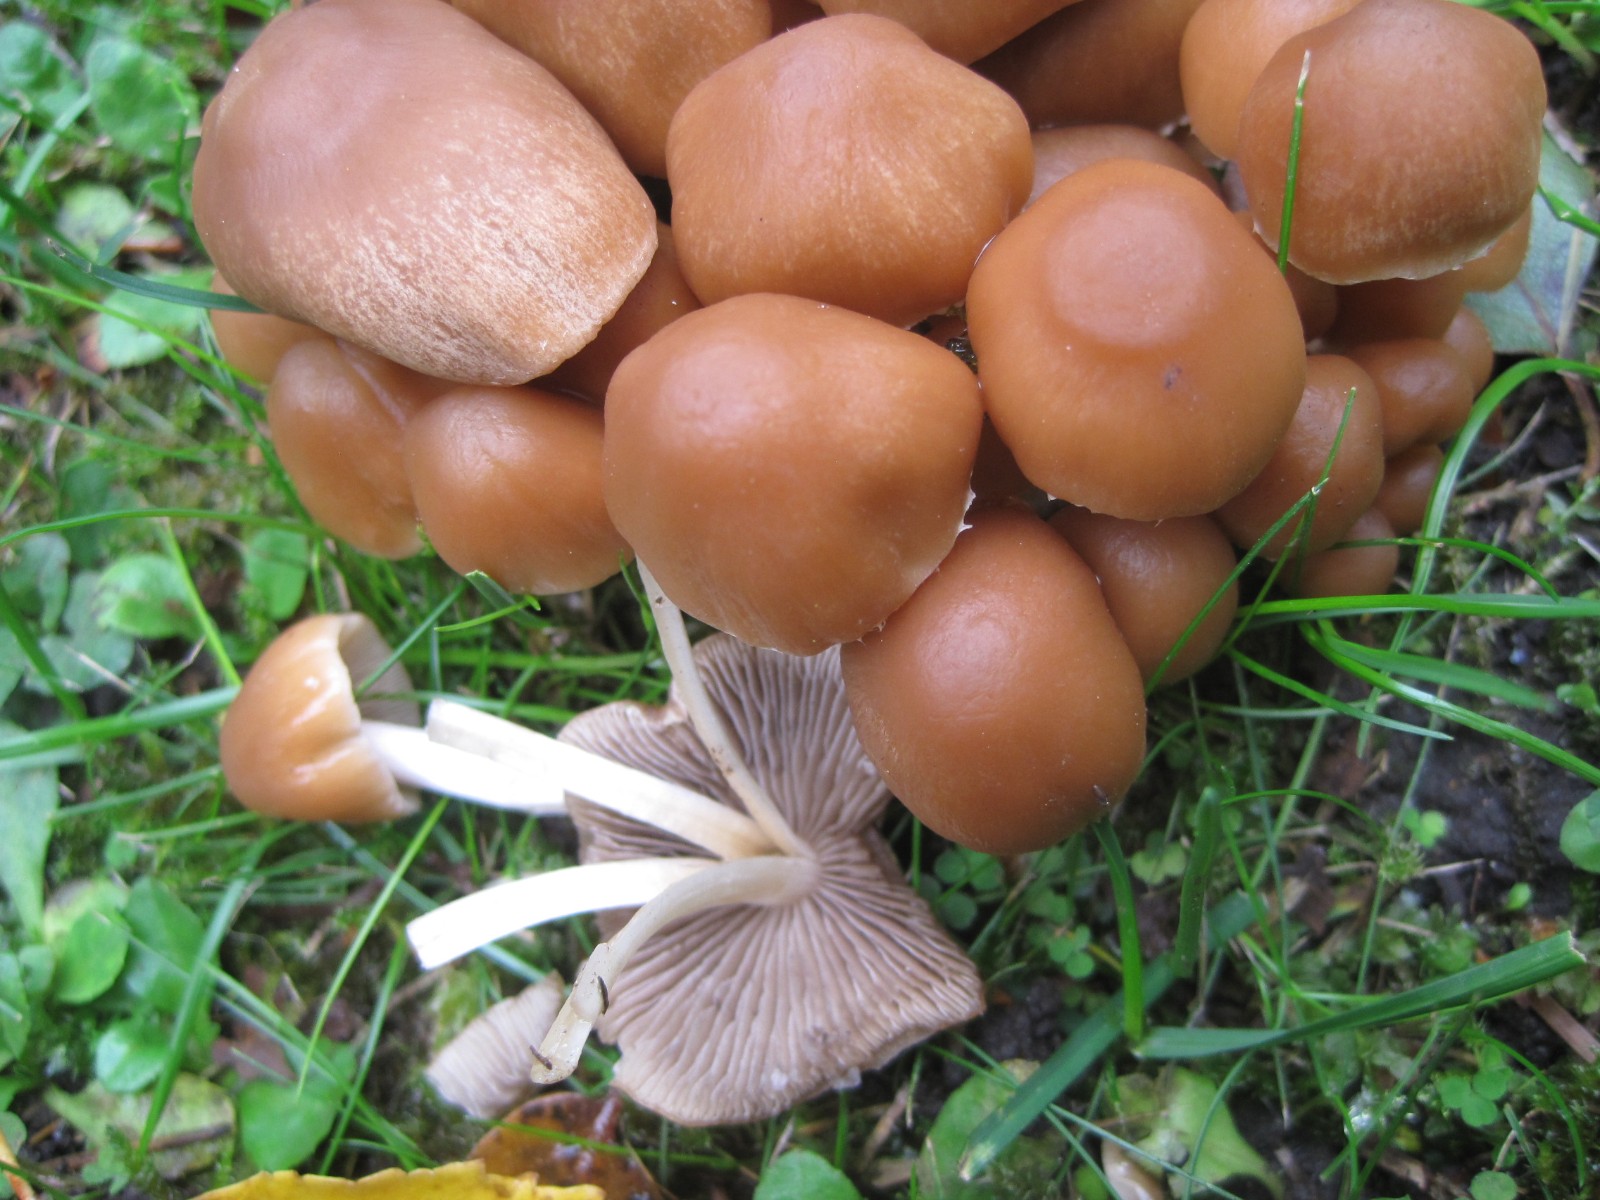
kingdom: Fungi
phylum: Basidiomycota
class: Agaricomycetes
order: Agaricales
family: Psathyrellaceae
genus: Britzelmayria
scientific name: Britzelmayria multipedata
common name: knippe-mørkhat
